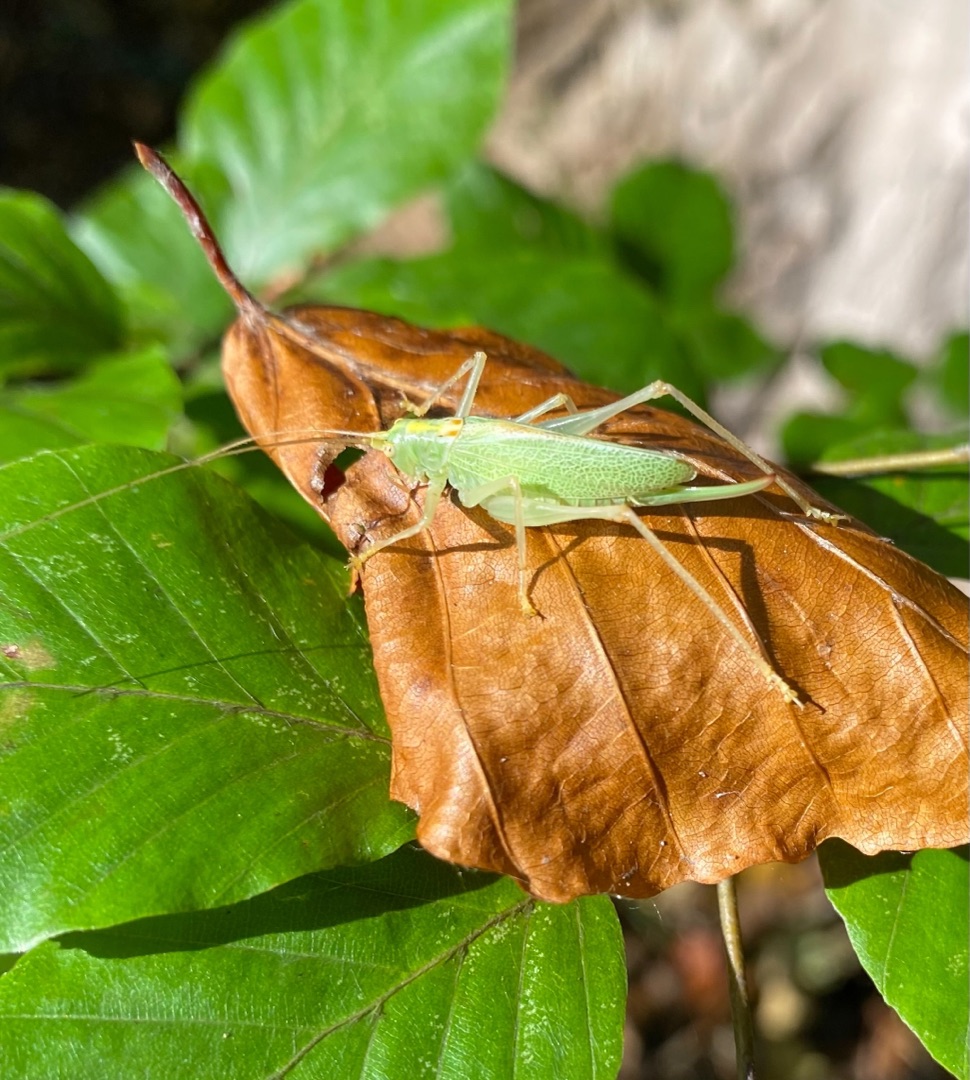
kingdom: Animalia
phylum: Arthropoda
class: Insecta
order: Orthoptera
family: Tettigoniidae
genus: Meconema
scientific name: Meconema thalassinum
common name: Egegræshoppe
